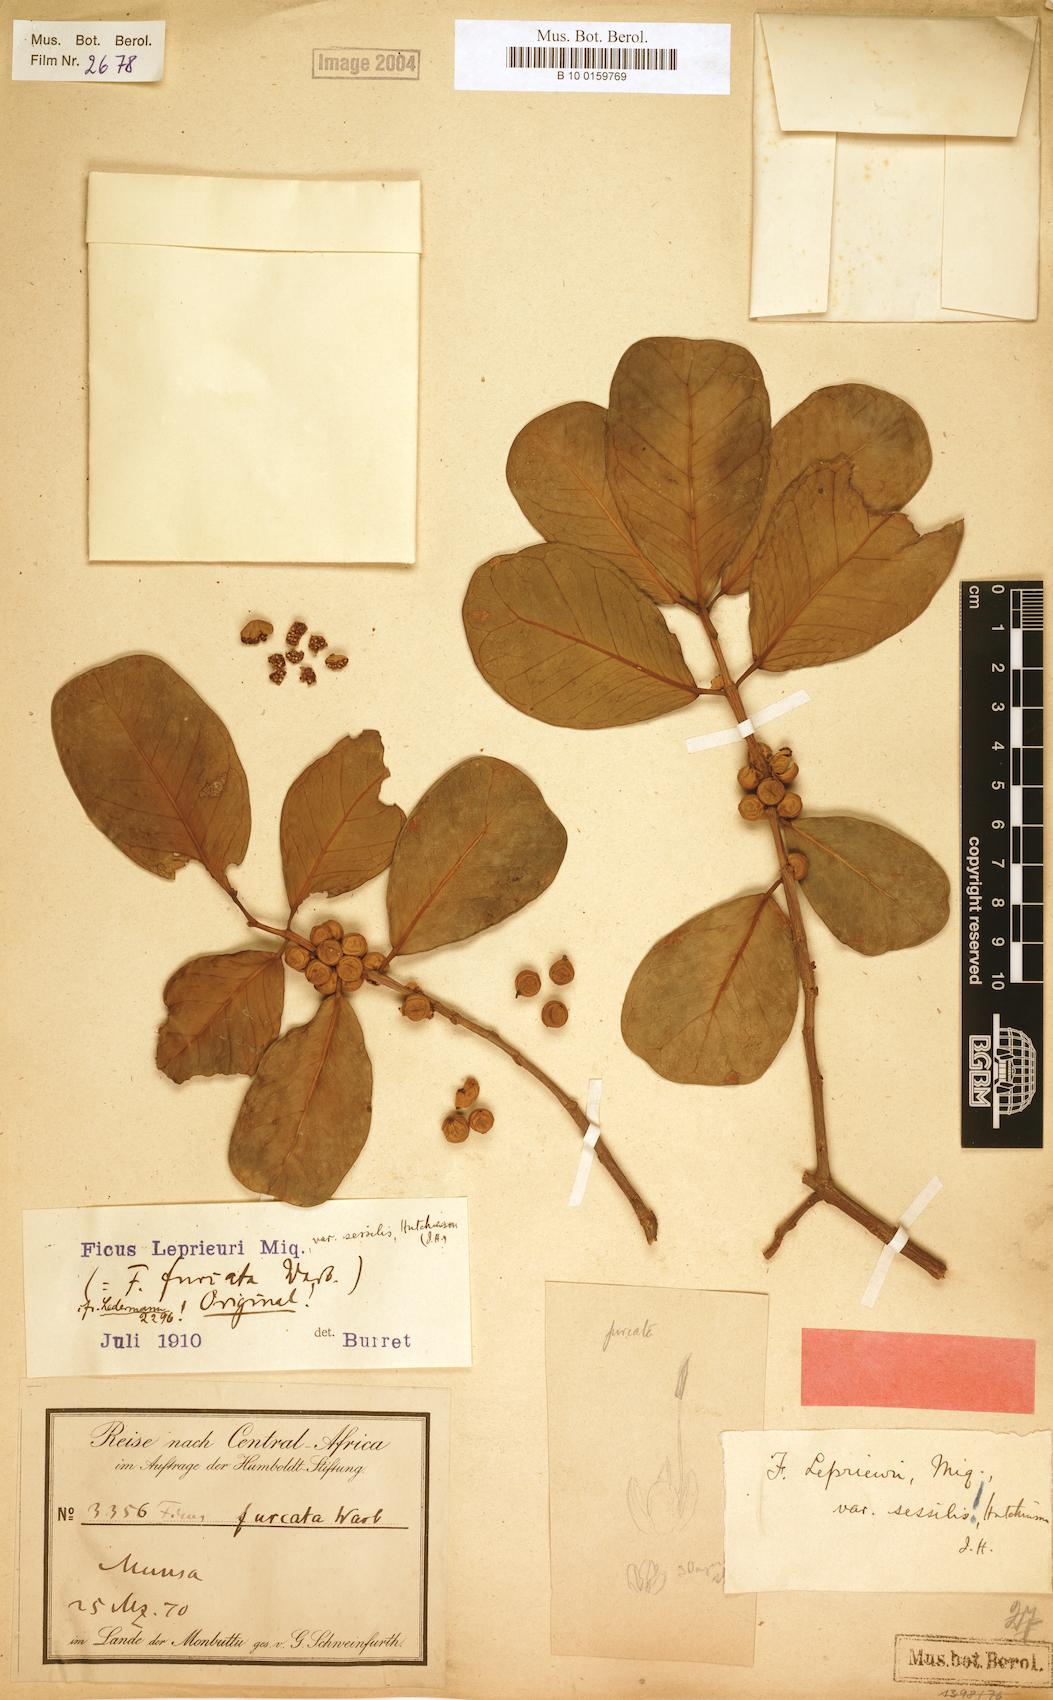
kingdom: Plantae
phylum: Tracheophyta
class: Magnoliopsida
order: Rosales
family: Moraceae
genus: Ficus
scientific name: Ficus natalensis
